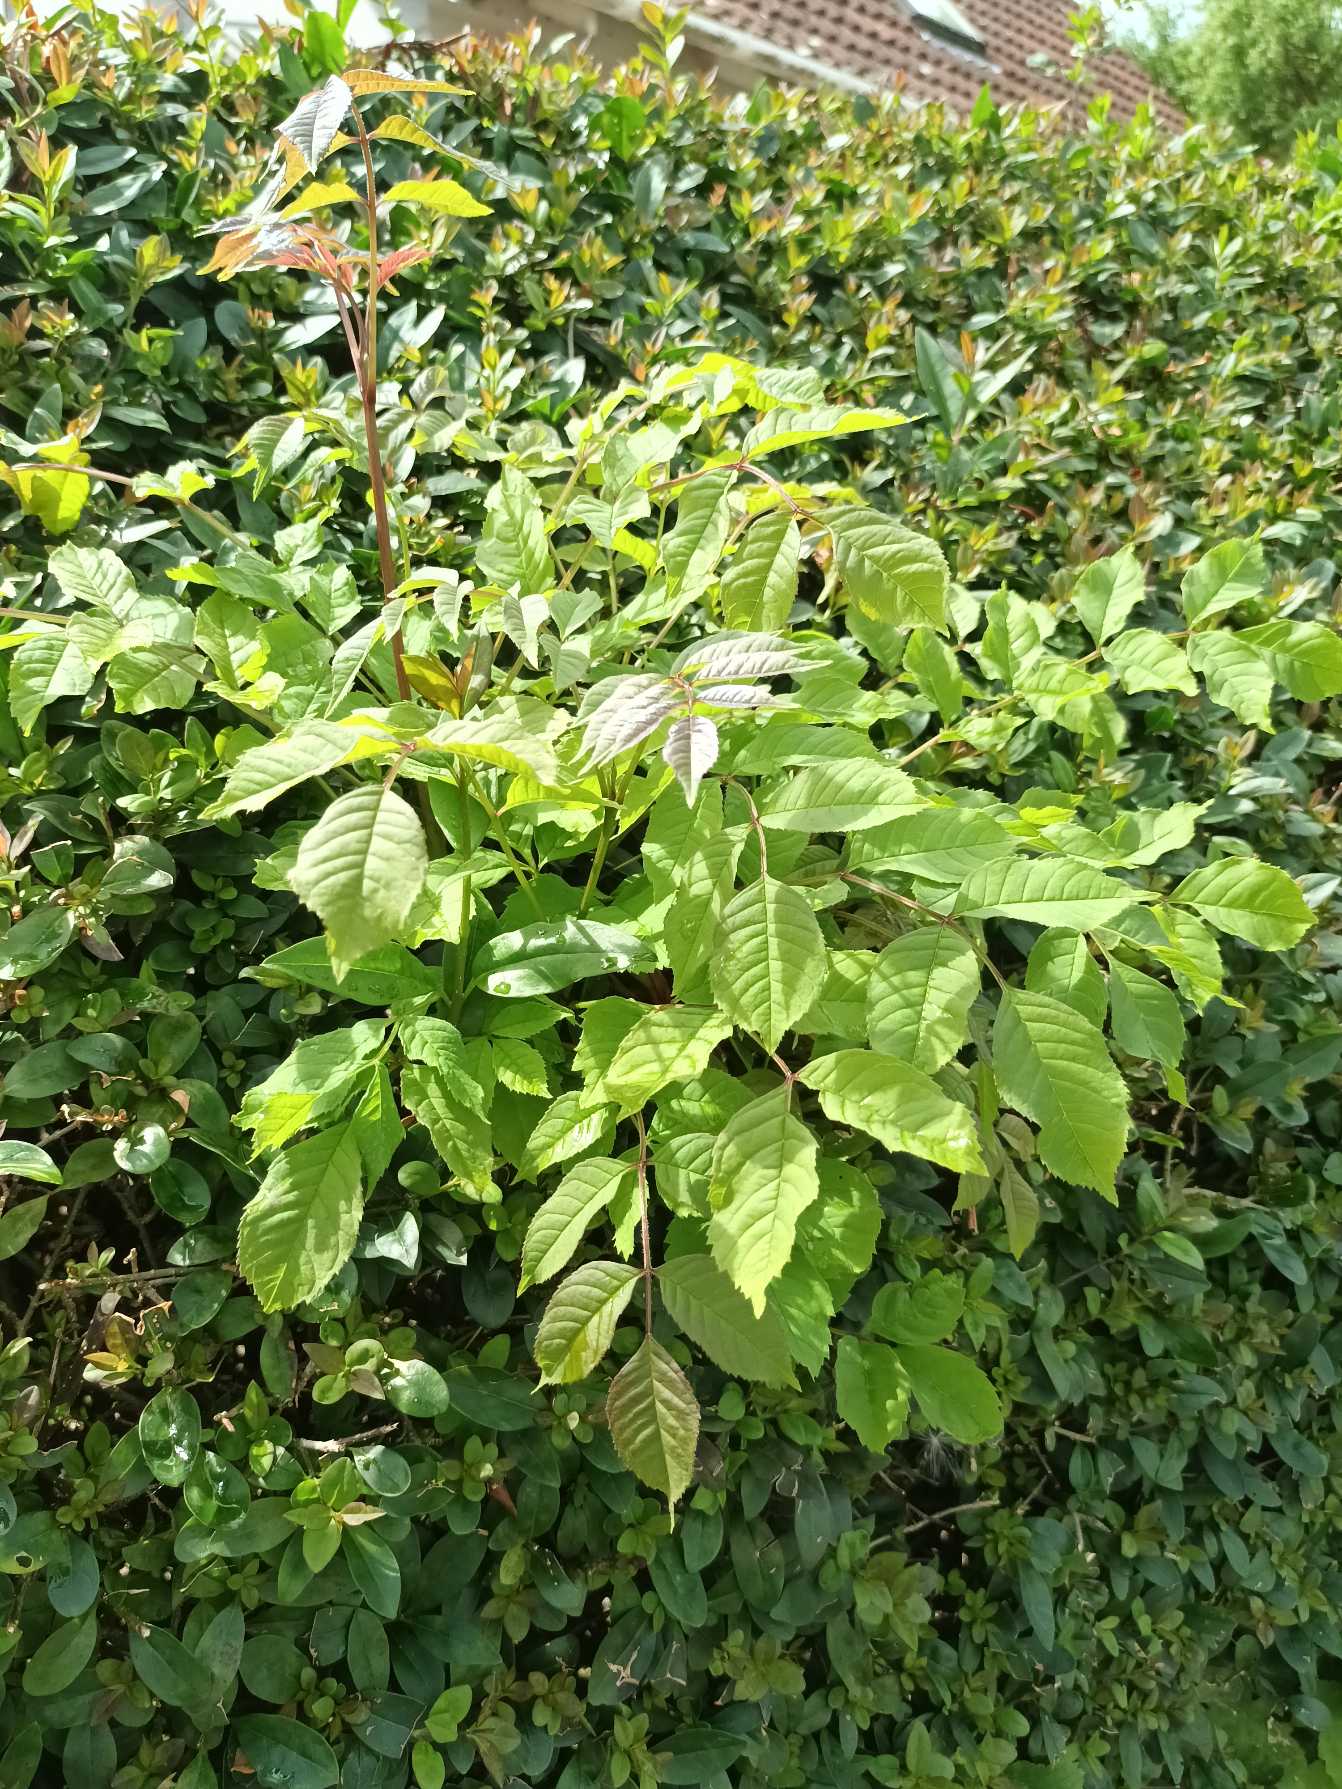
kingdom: Plantae
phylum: Tracheophyta
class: Magnoliopsida
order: Lamiales
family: Oleaceae
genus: Fraxinus
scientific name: Fraxinus excelsior
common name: Ask
